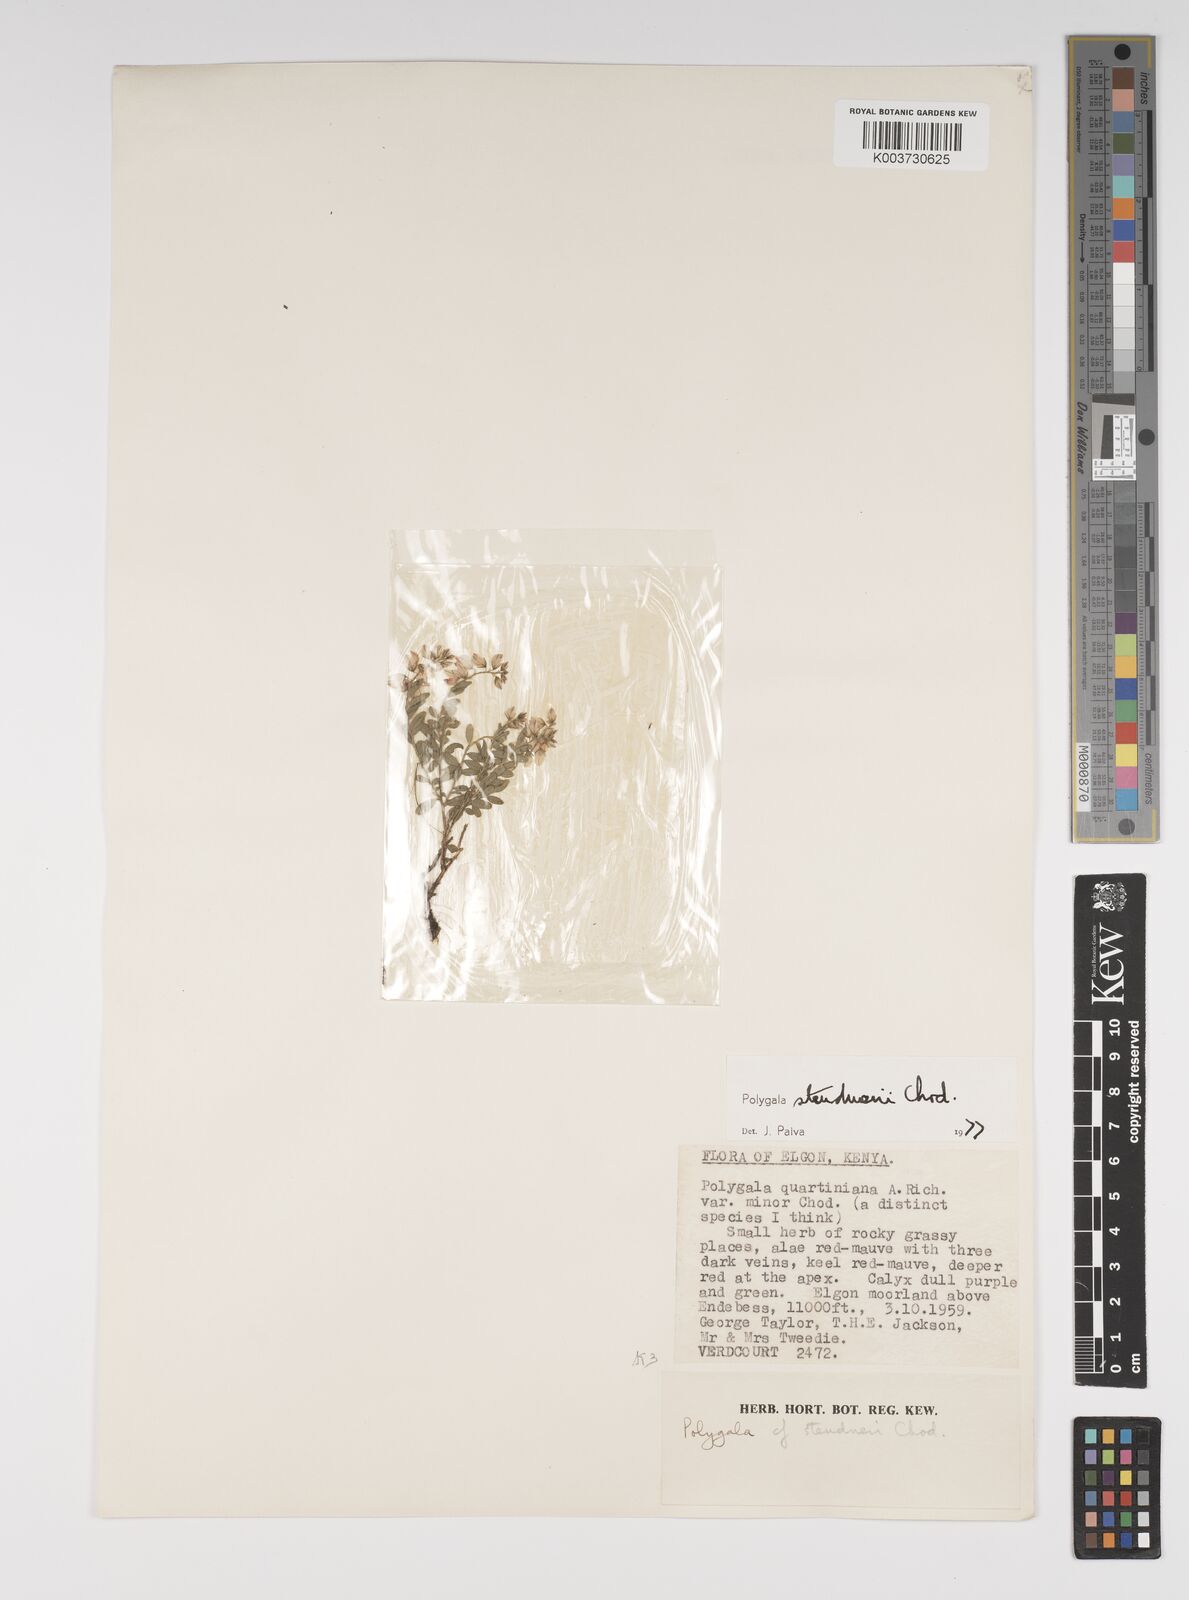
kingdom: Plantae
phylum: Tracheophyta
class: Magnoliopsida
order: Fabales
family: Polygalaceae
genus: Polygala
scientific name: Polygala steudneri
